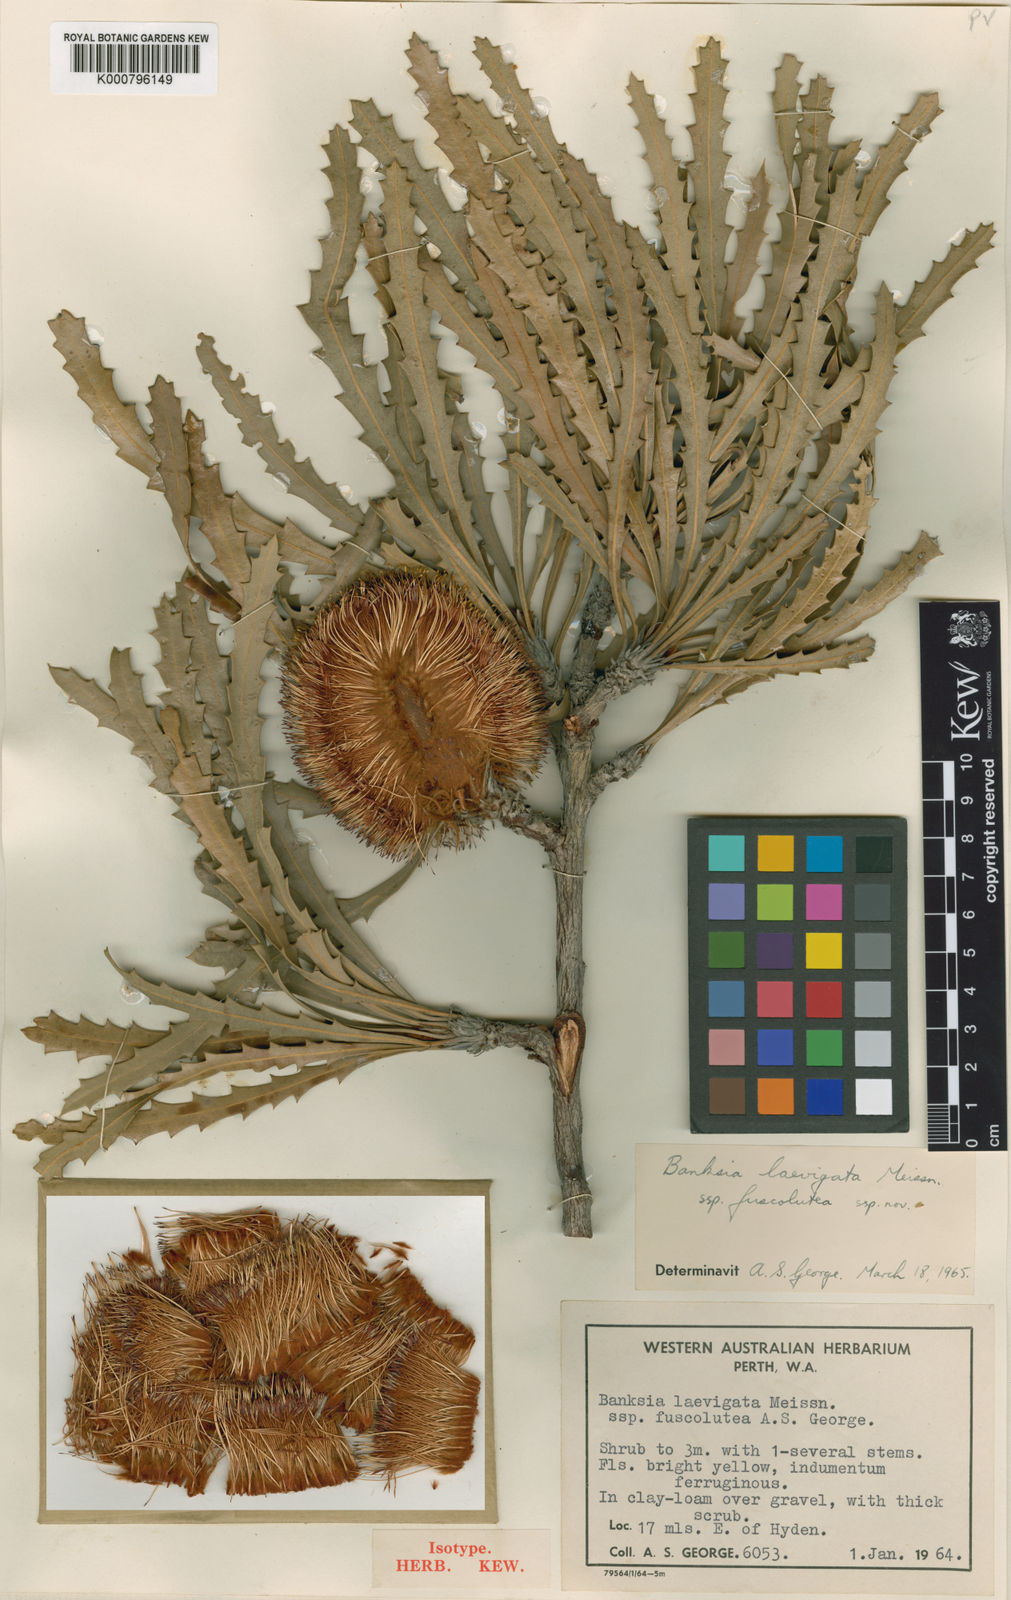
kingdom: Plantae
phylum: Tracheophyta
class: Magnoliopsida
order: Proteales
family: Proteaceae
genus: Banksia
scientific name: Banksia laevigata
